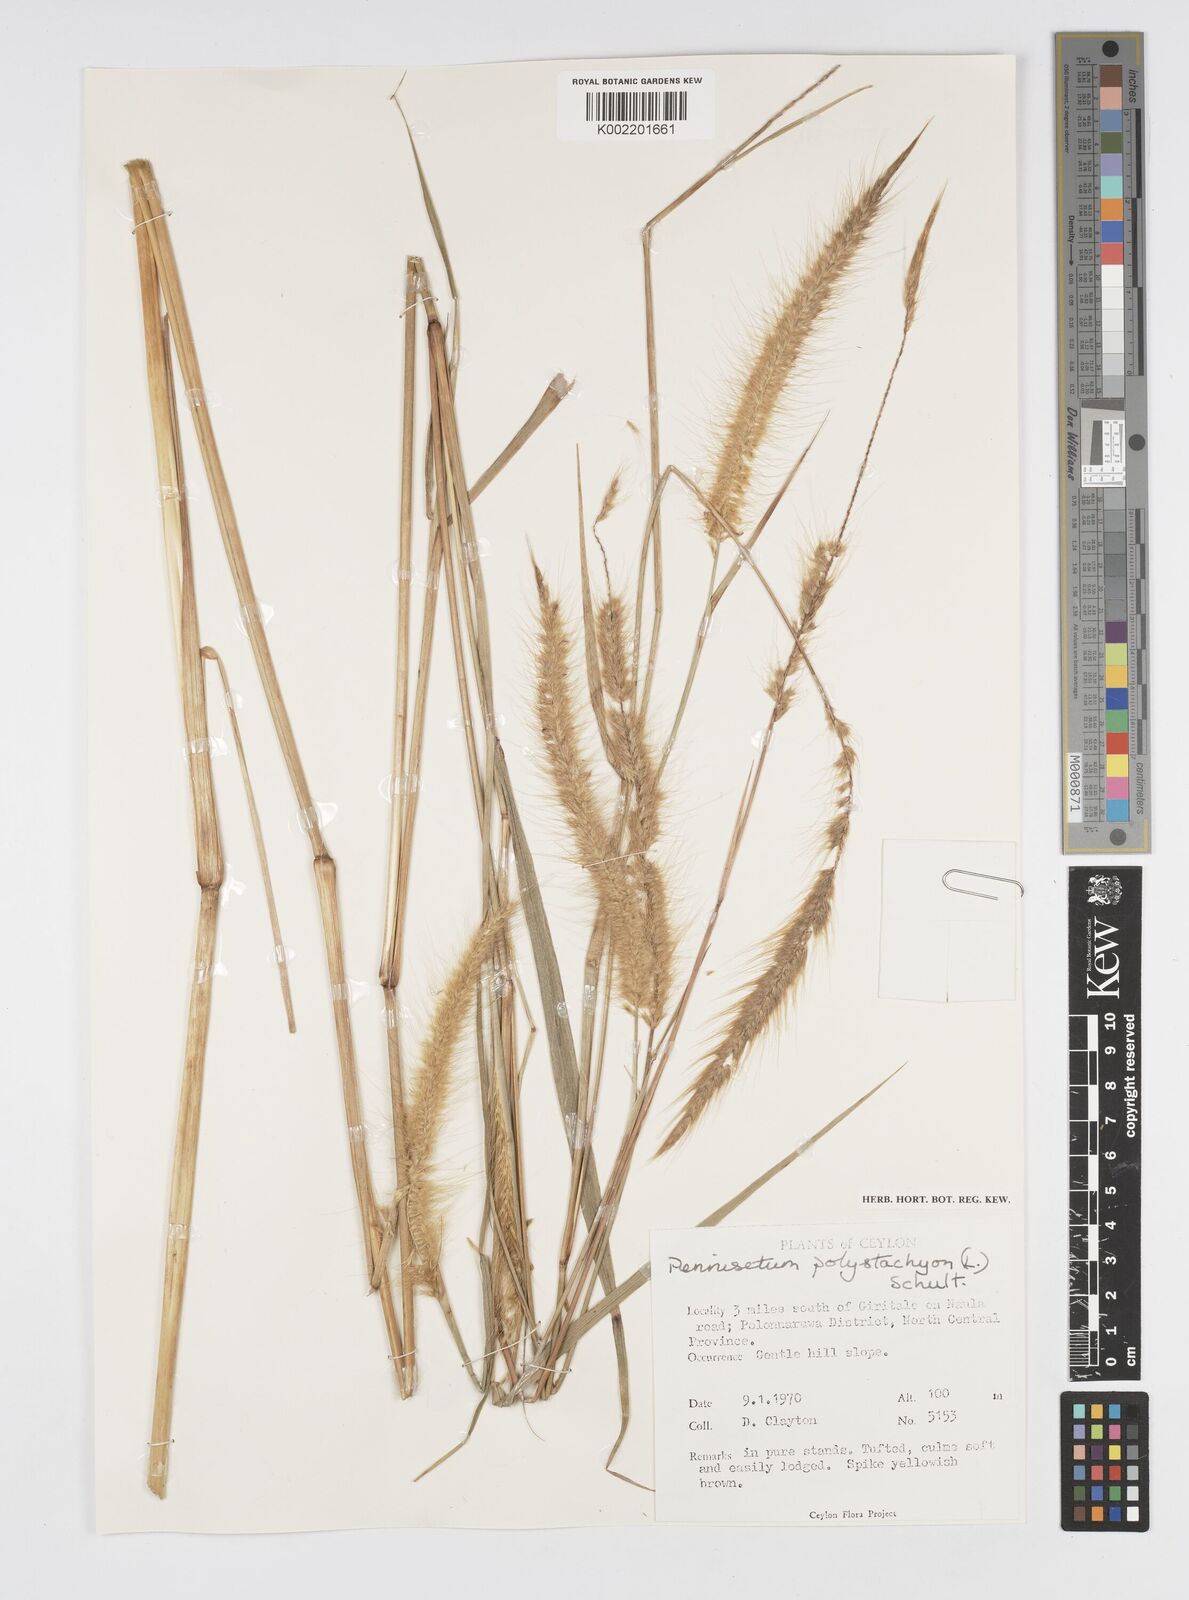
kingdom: Plantae
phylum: Tracheophyta
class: Liliopsida
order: Poales
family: Poaceae
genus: Setaria
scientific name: Setaria parviflora
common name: Knotroot bristle-grass
